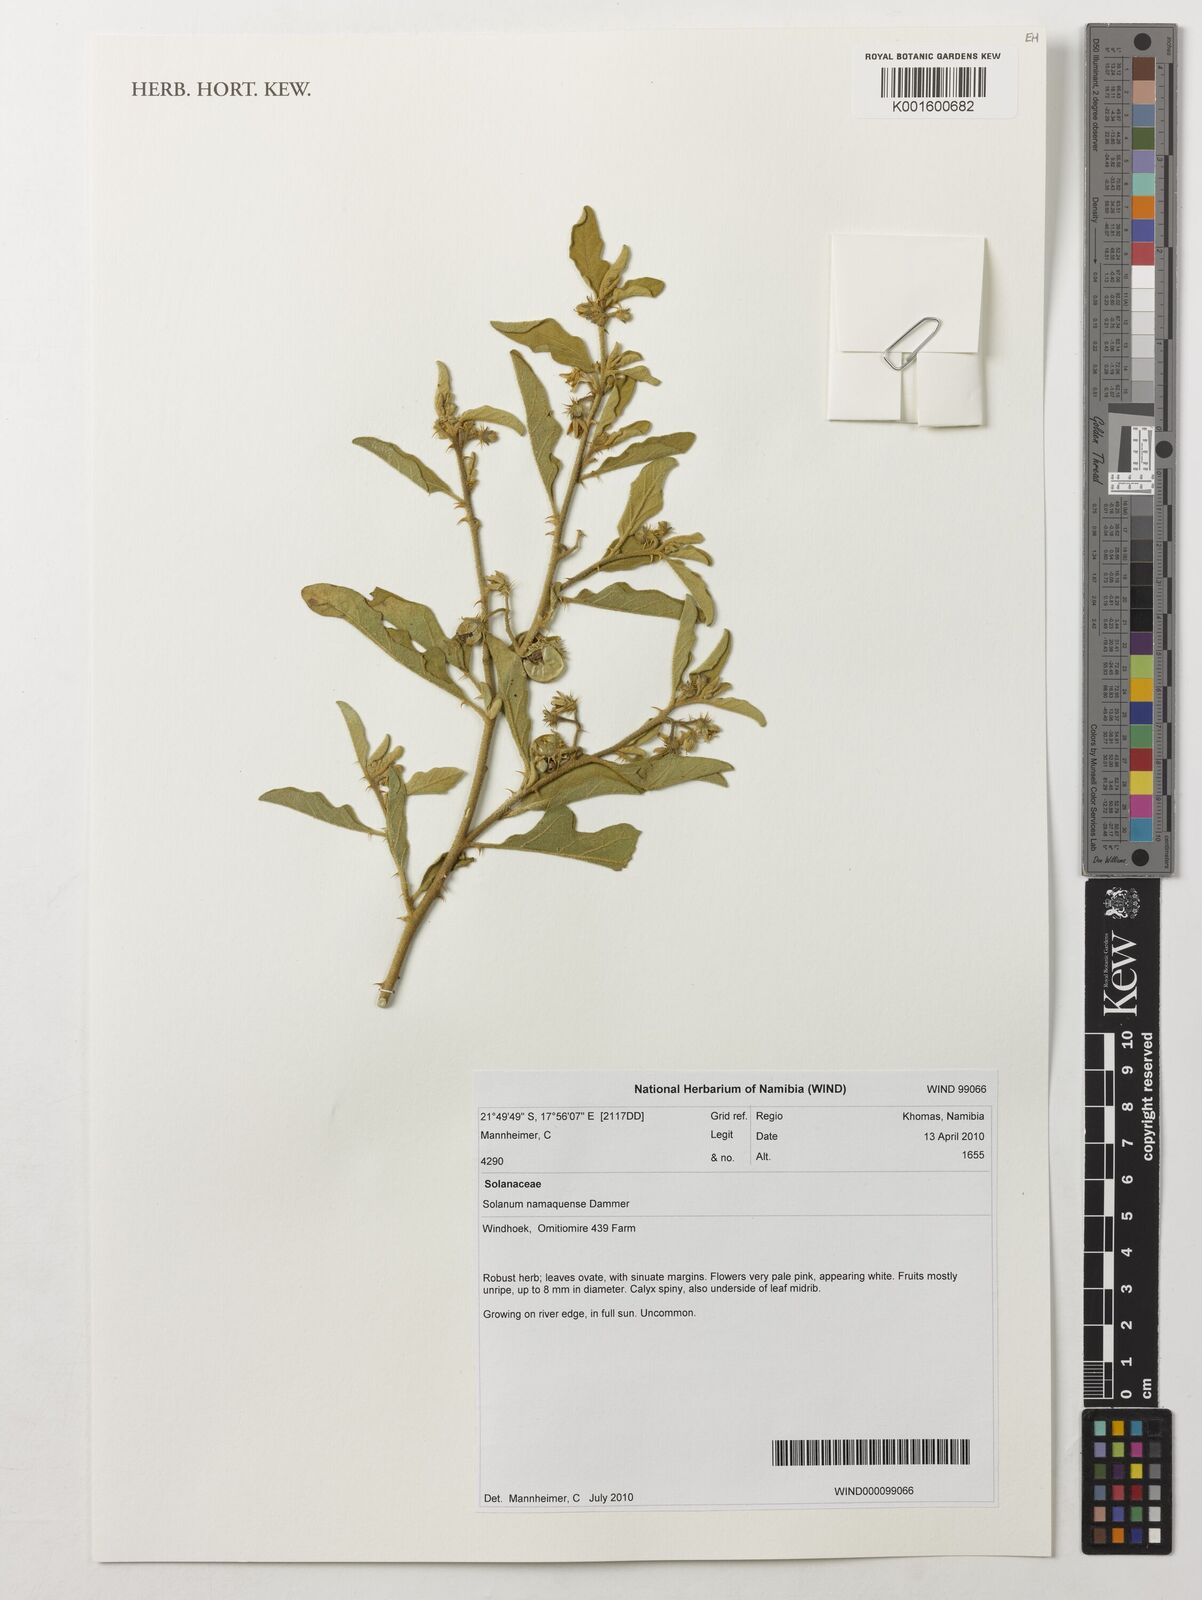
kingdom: Plantae
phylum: Tracheophyta
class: Magnoliopsida
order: Solanales
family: Solanaceae
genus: Solanum
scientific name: Solanum capense
